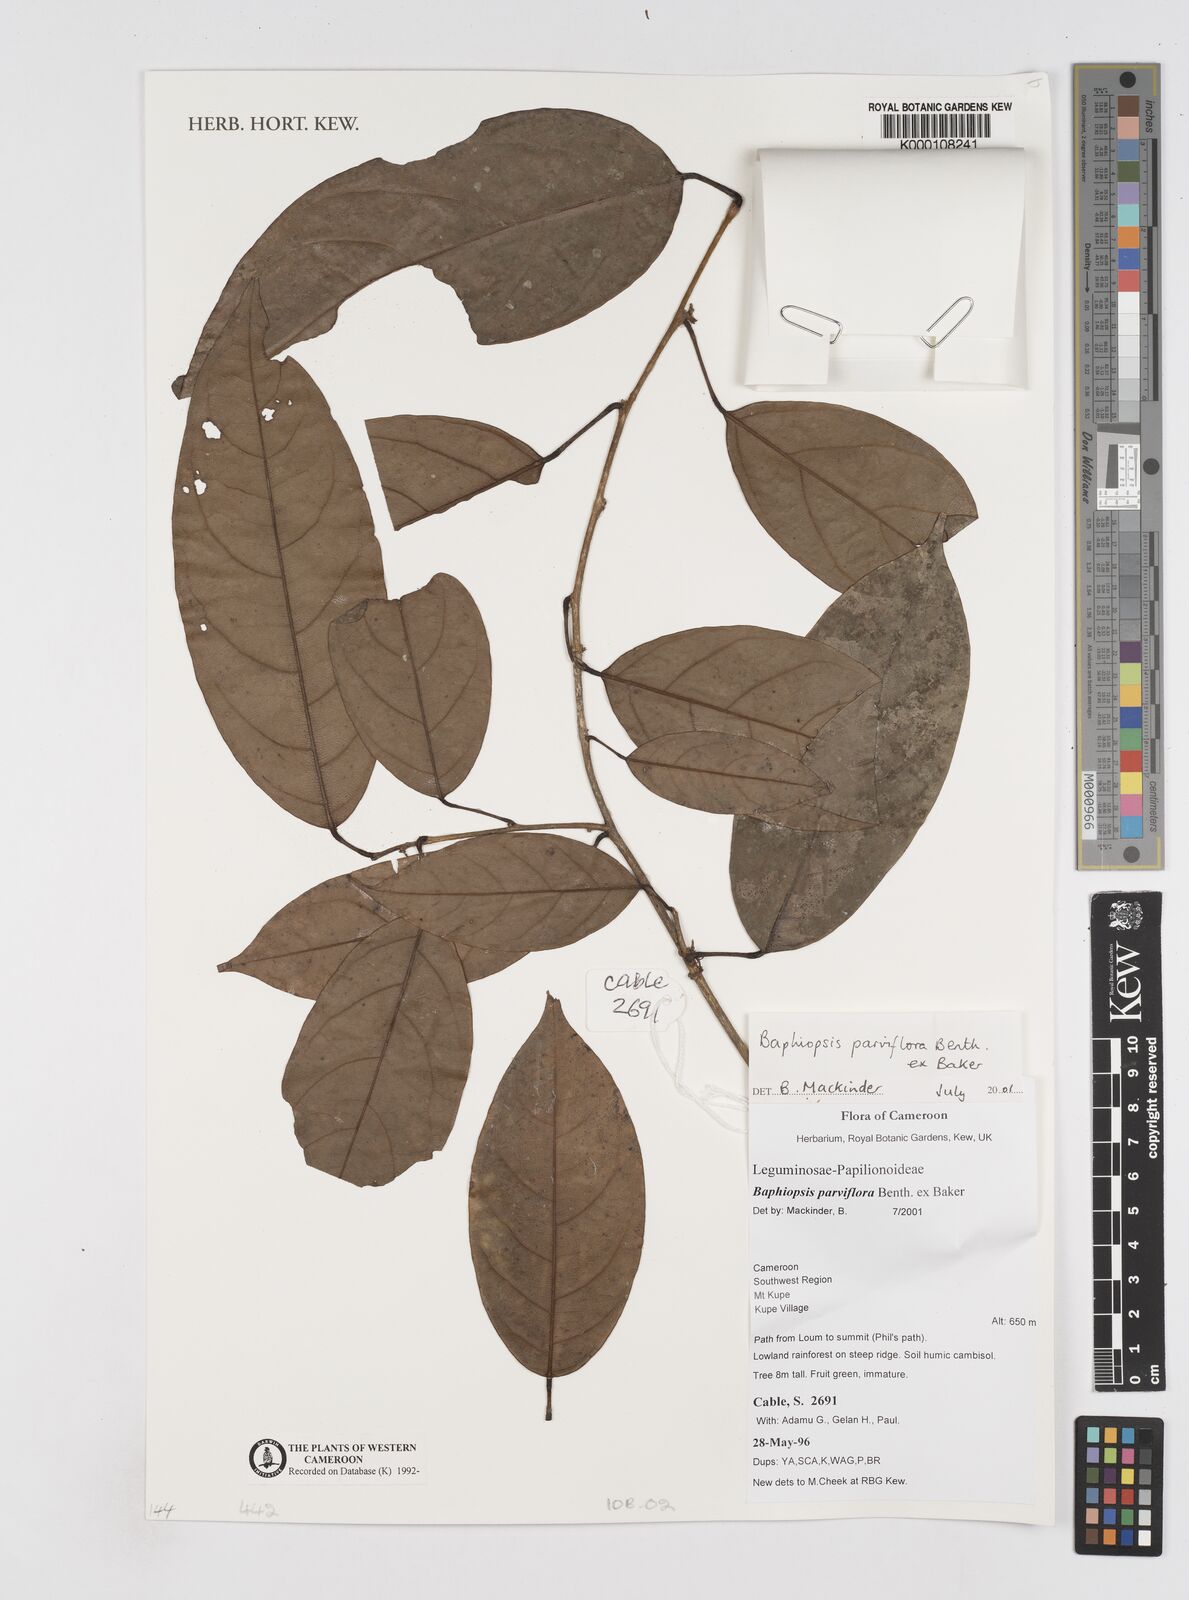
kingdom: Plantae
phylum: Tracheophyta
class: Magnoliopsida
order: Fabales
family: Fabaceae
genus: Baphiopsis
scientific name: Baphiopsis parviflora
